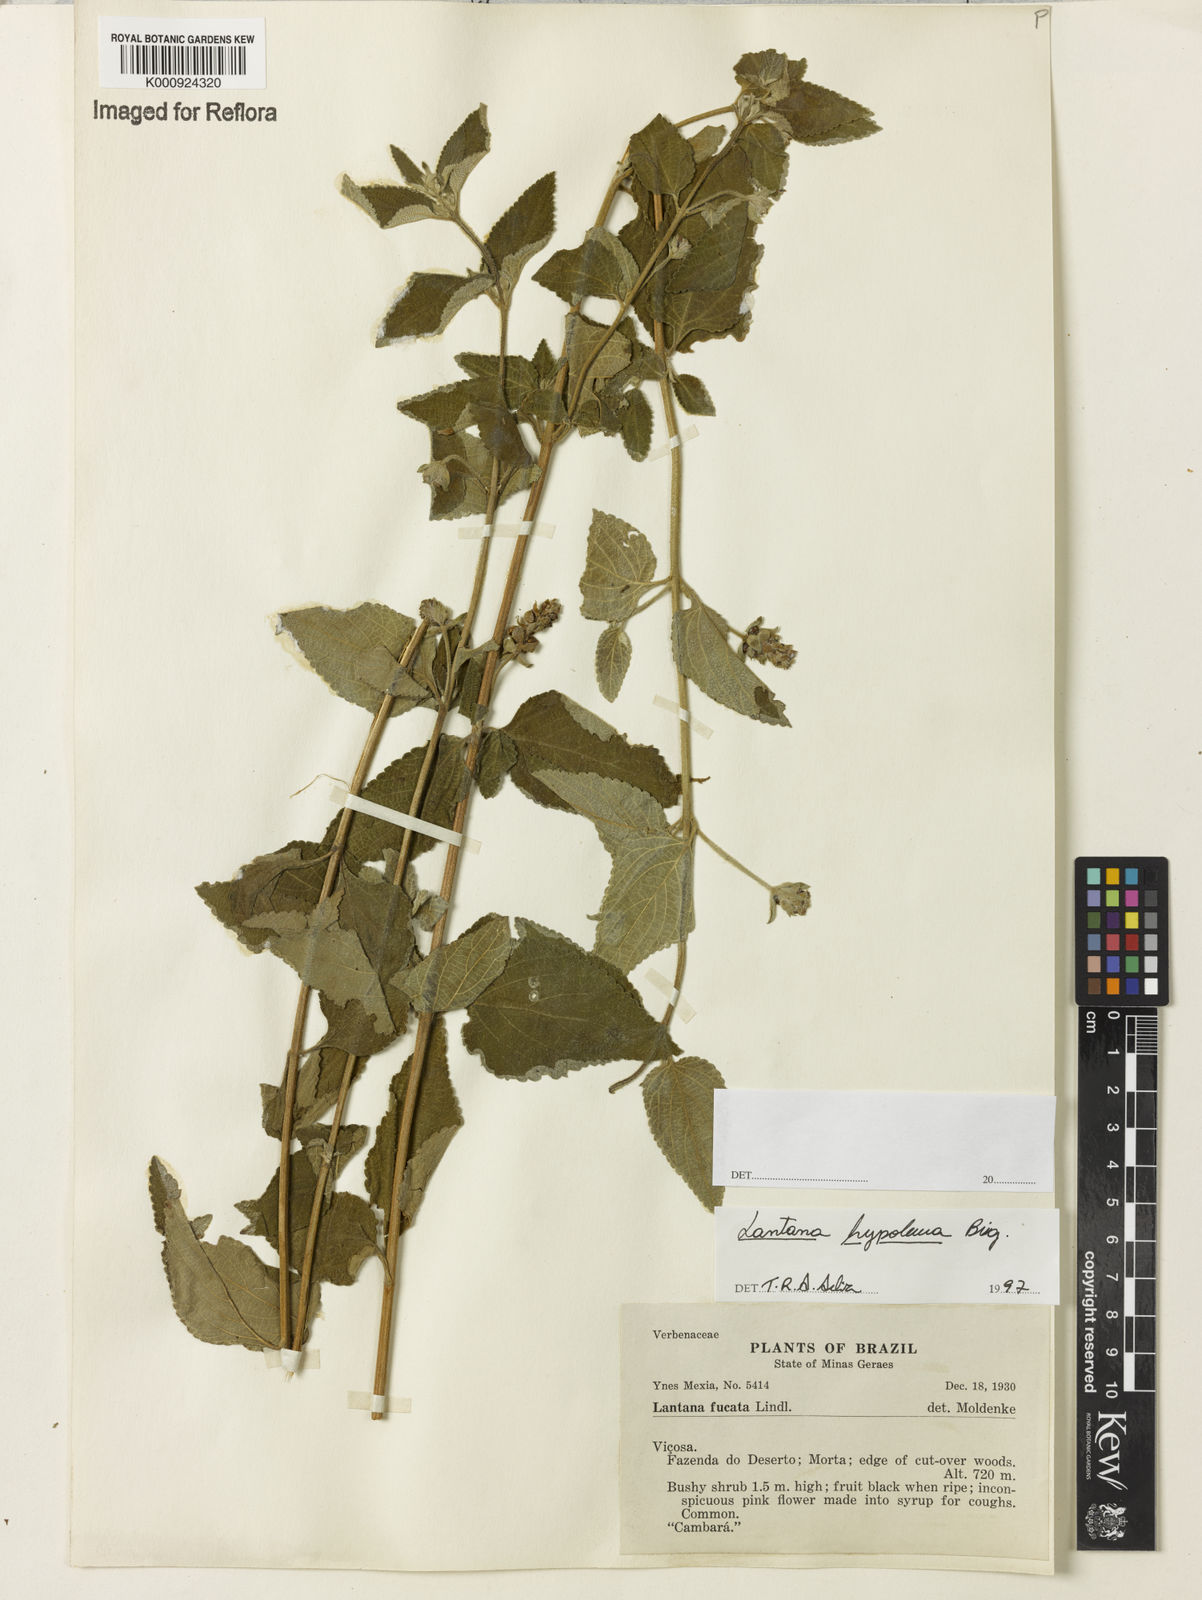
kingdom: Plantae
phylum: Tracheophyta
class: Magnoliopsida
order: Lamiales
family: Verbenaceae
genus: Lantana
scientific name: Lantana hypoleuca
